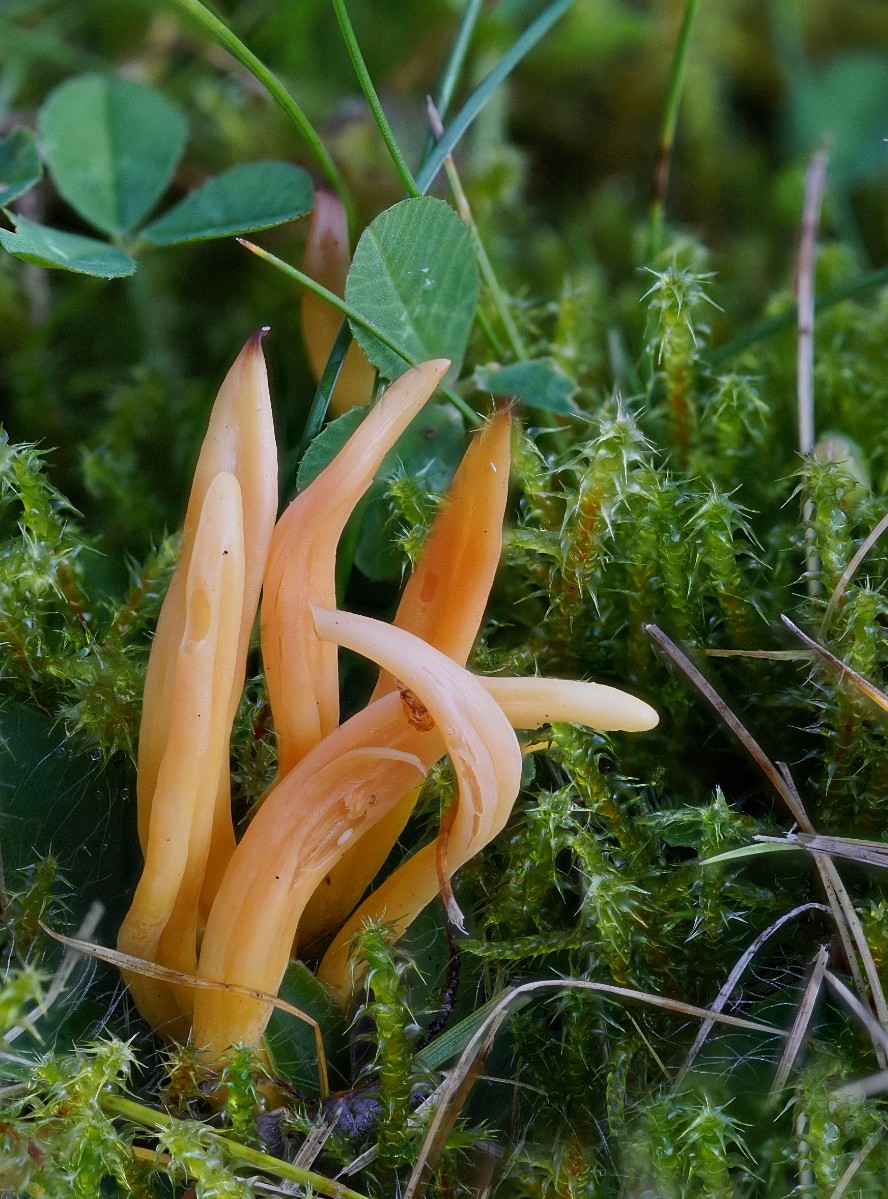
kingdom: Fungi
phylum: Basidiomycota
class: Agaricomycetes
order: Agaricales
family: Clavariaceae
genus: Clavulinopsis
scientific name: Clavulinopsis helvola
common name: orangegul køllesvamp
